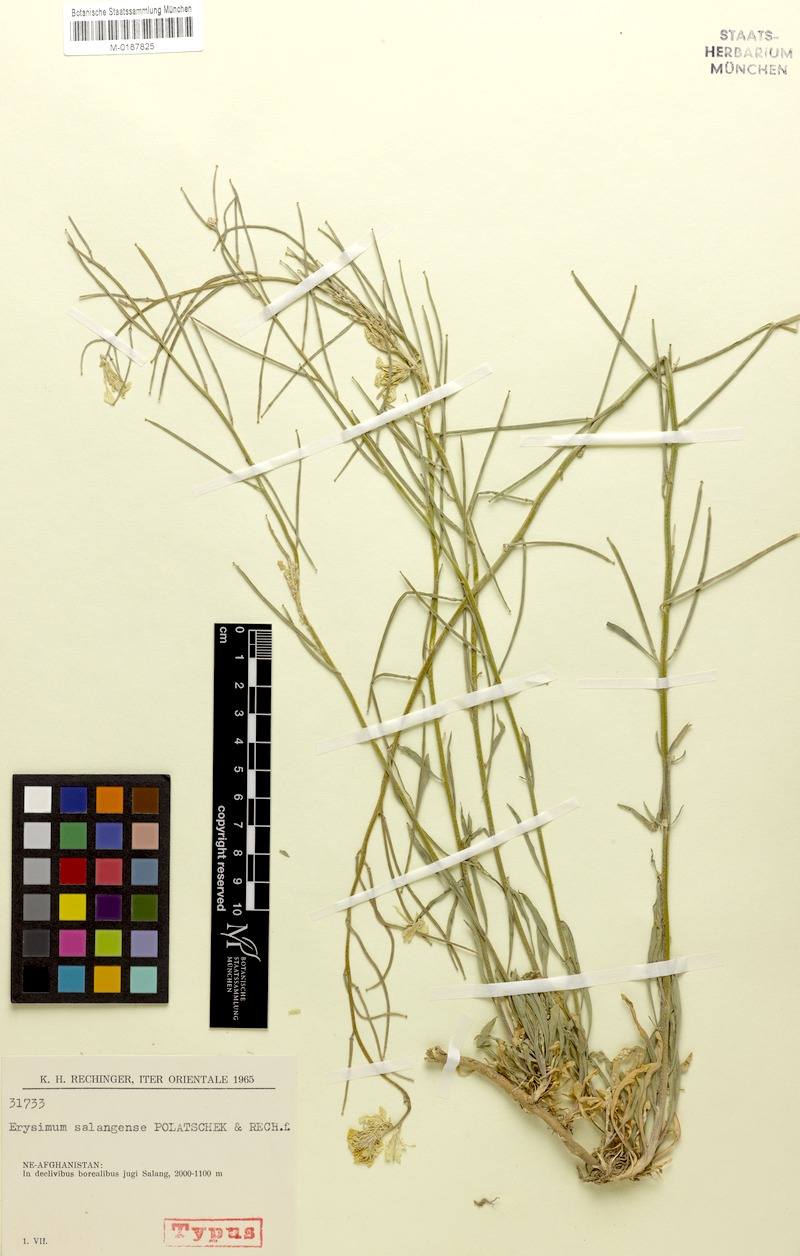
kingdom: Plantae
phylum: Tracheophyta
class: Magnoliopsida
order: Brassicales
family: Brassicaceae
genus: Erysimum
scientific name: Erysimum salangense
